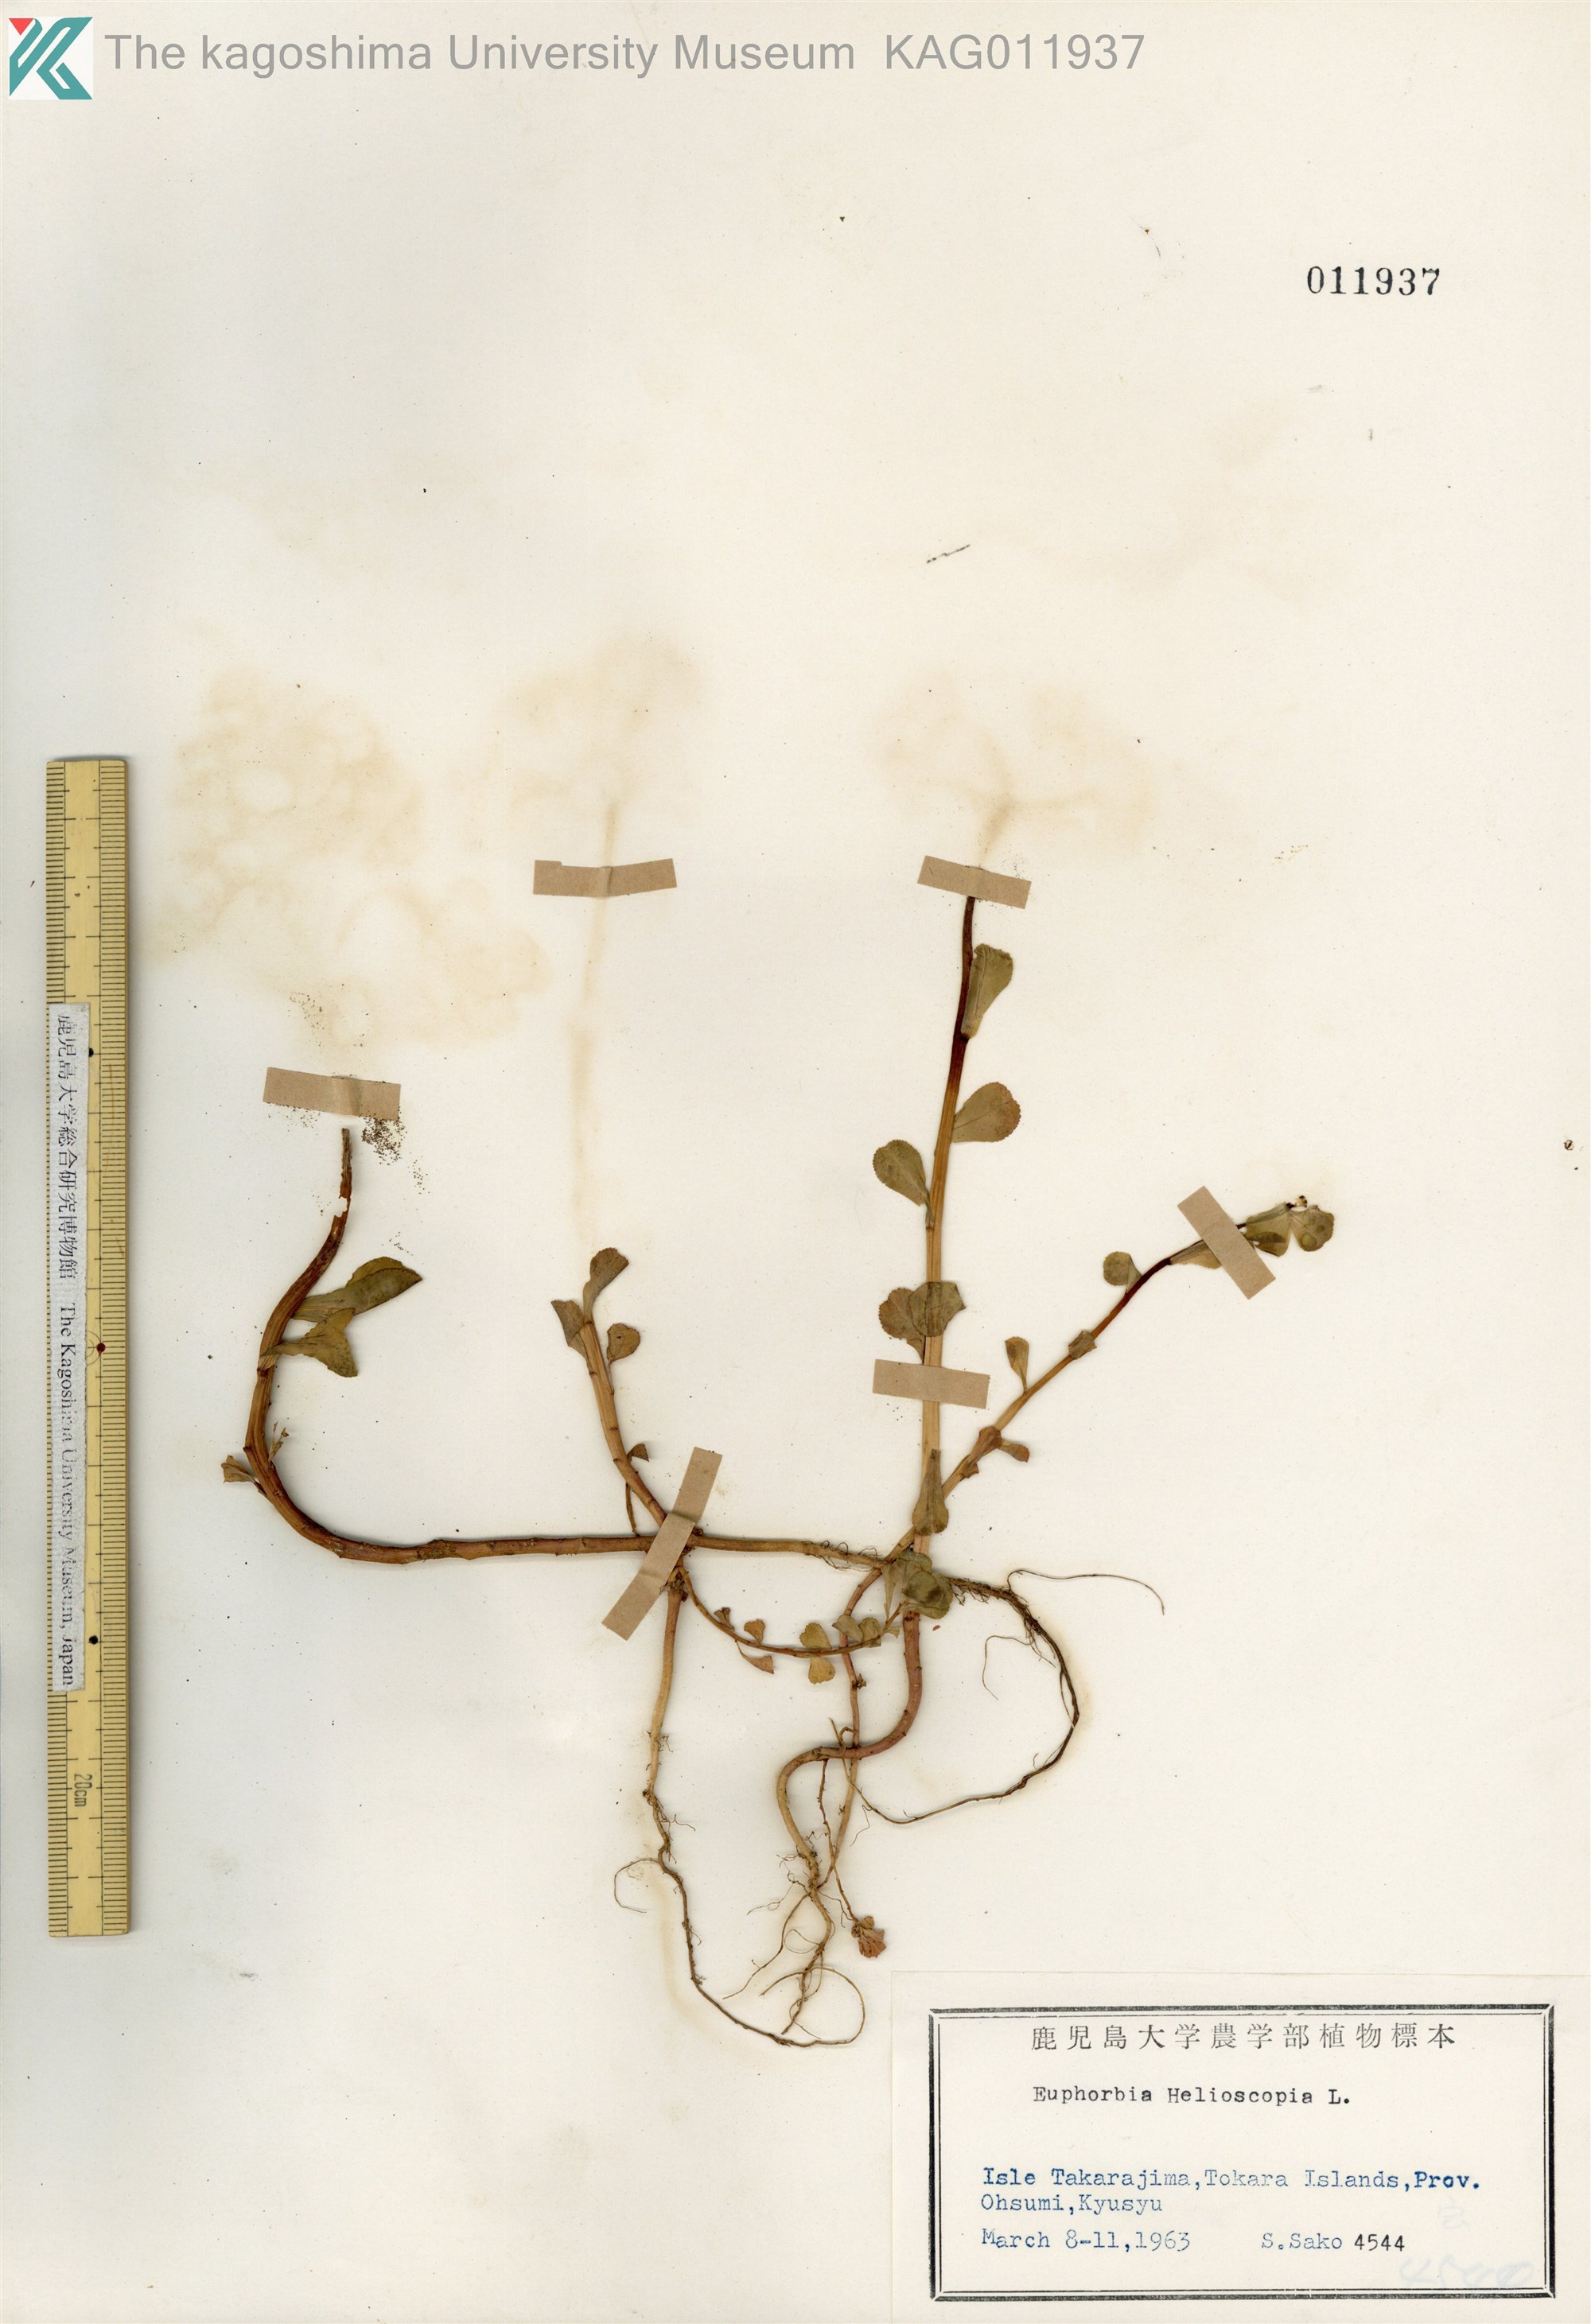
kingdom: Plantae
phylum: Tracheophyta
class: Magnoliopsida
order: Malpighiales
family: Euphorbiaceae
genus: Euphorbia
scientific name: Euphorbia helioscopia
